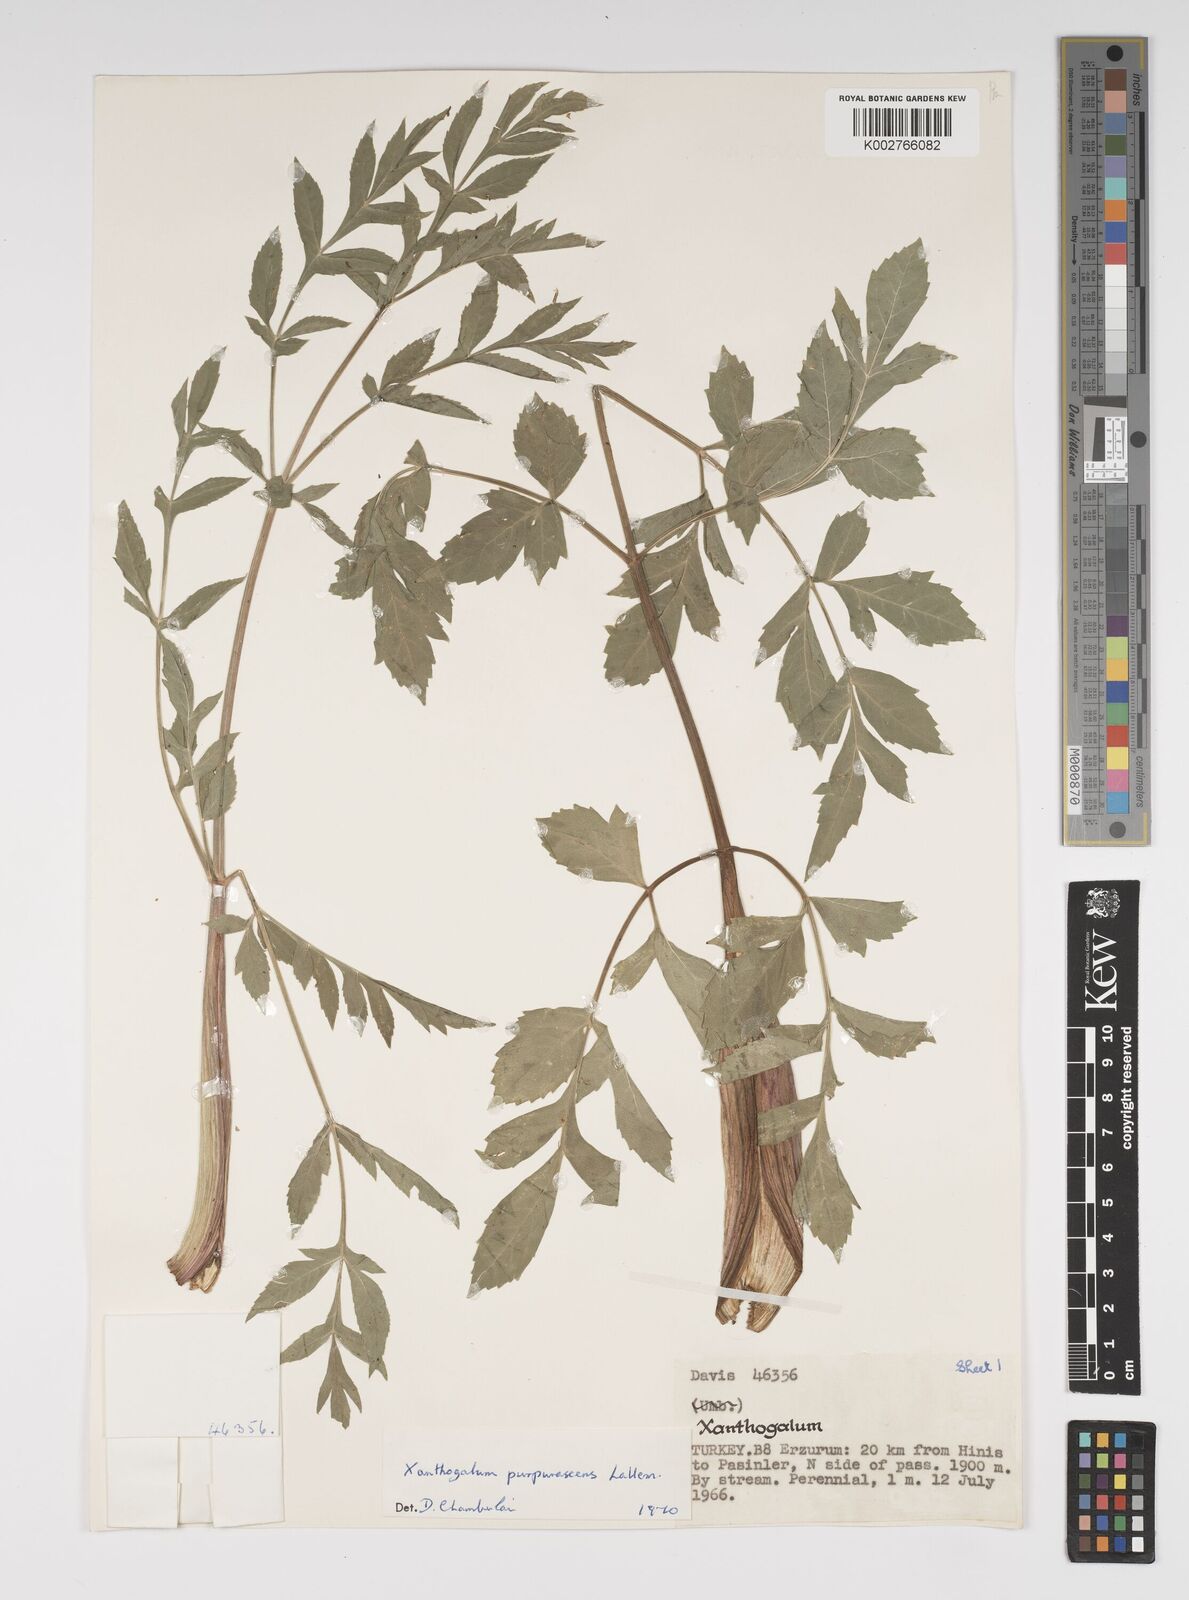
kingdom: Plantae
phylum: Tracheophyta
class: Magnoliopsida
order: Apiales
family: Apiaceae
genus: Xanthogalum
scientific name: Xanthogalum purpurascens
